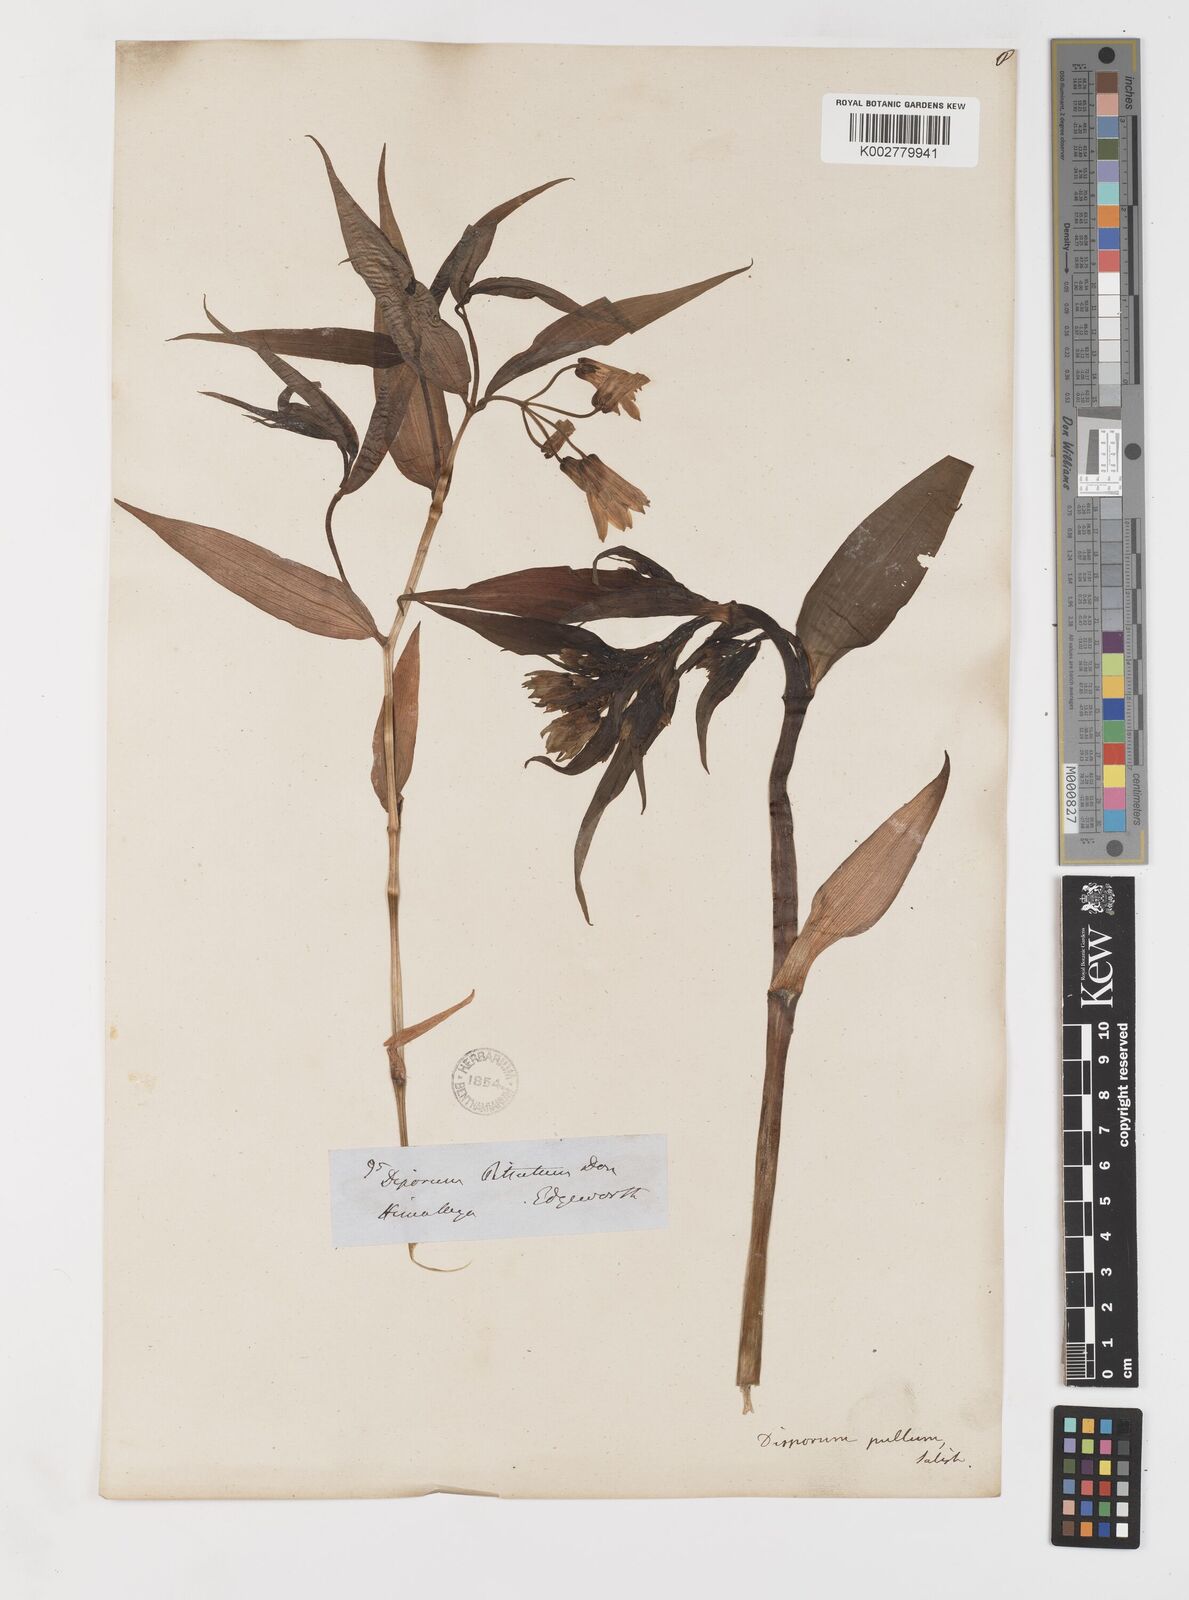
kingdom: Plantae
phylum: Tracheophyta
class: Liliopsida
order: Liliales
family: Colchicaceae
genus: Disporum
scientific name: Disporum cantoniense
